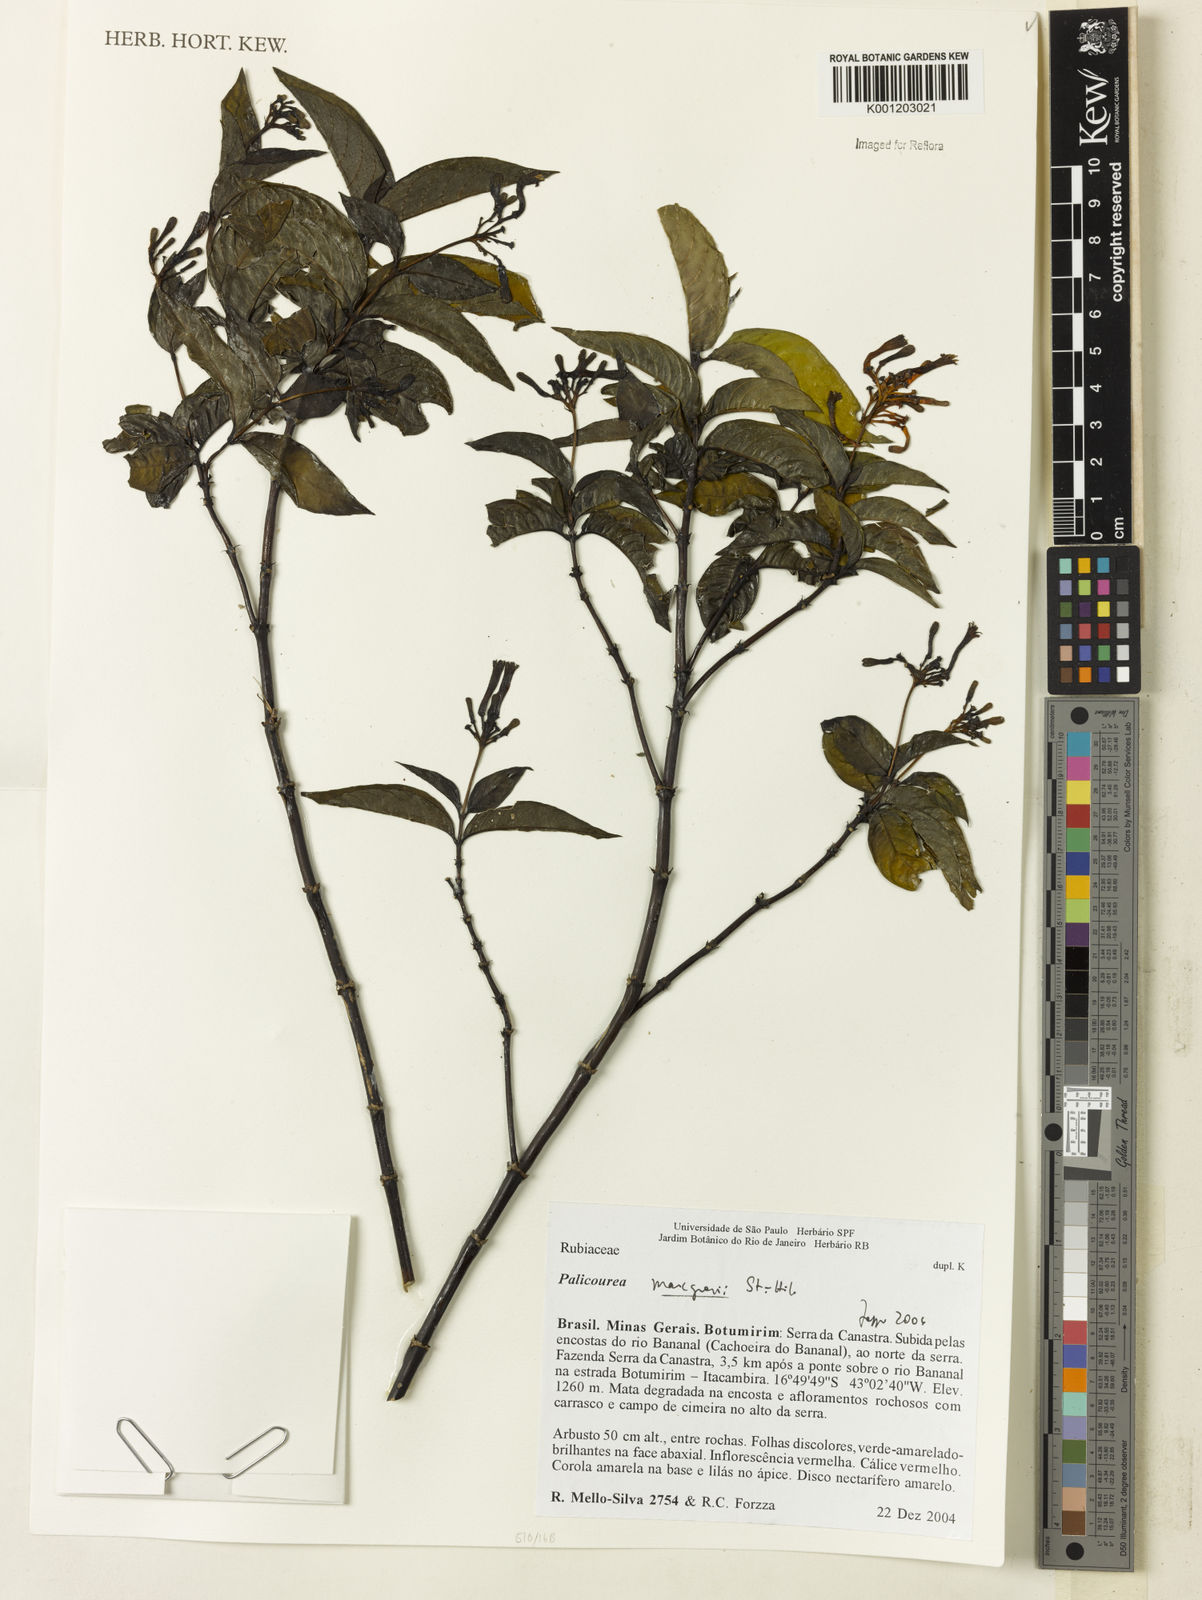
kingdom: Plantae
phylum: Tracheophyta
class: Magnoliopsida
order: Gentianales
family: Rubiaceae
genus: Palicourea
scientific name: Palicourea marcgravii
